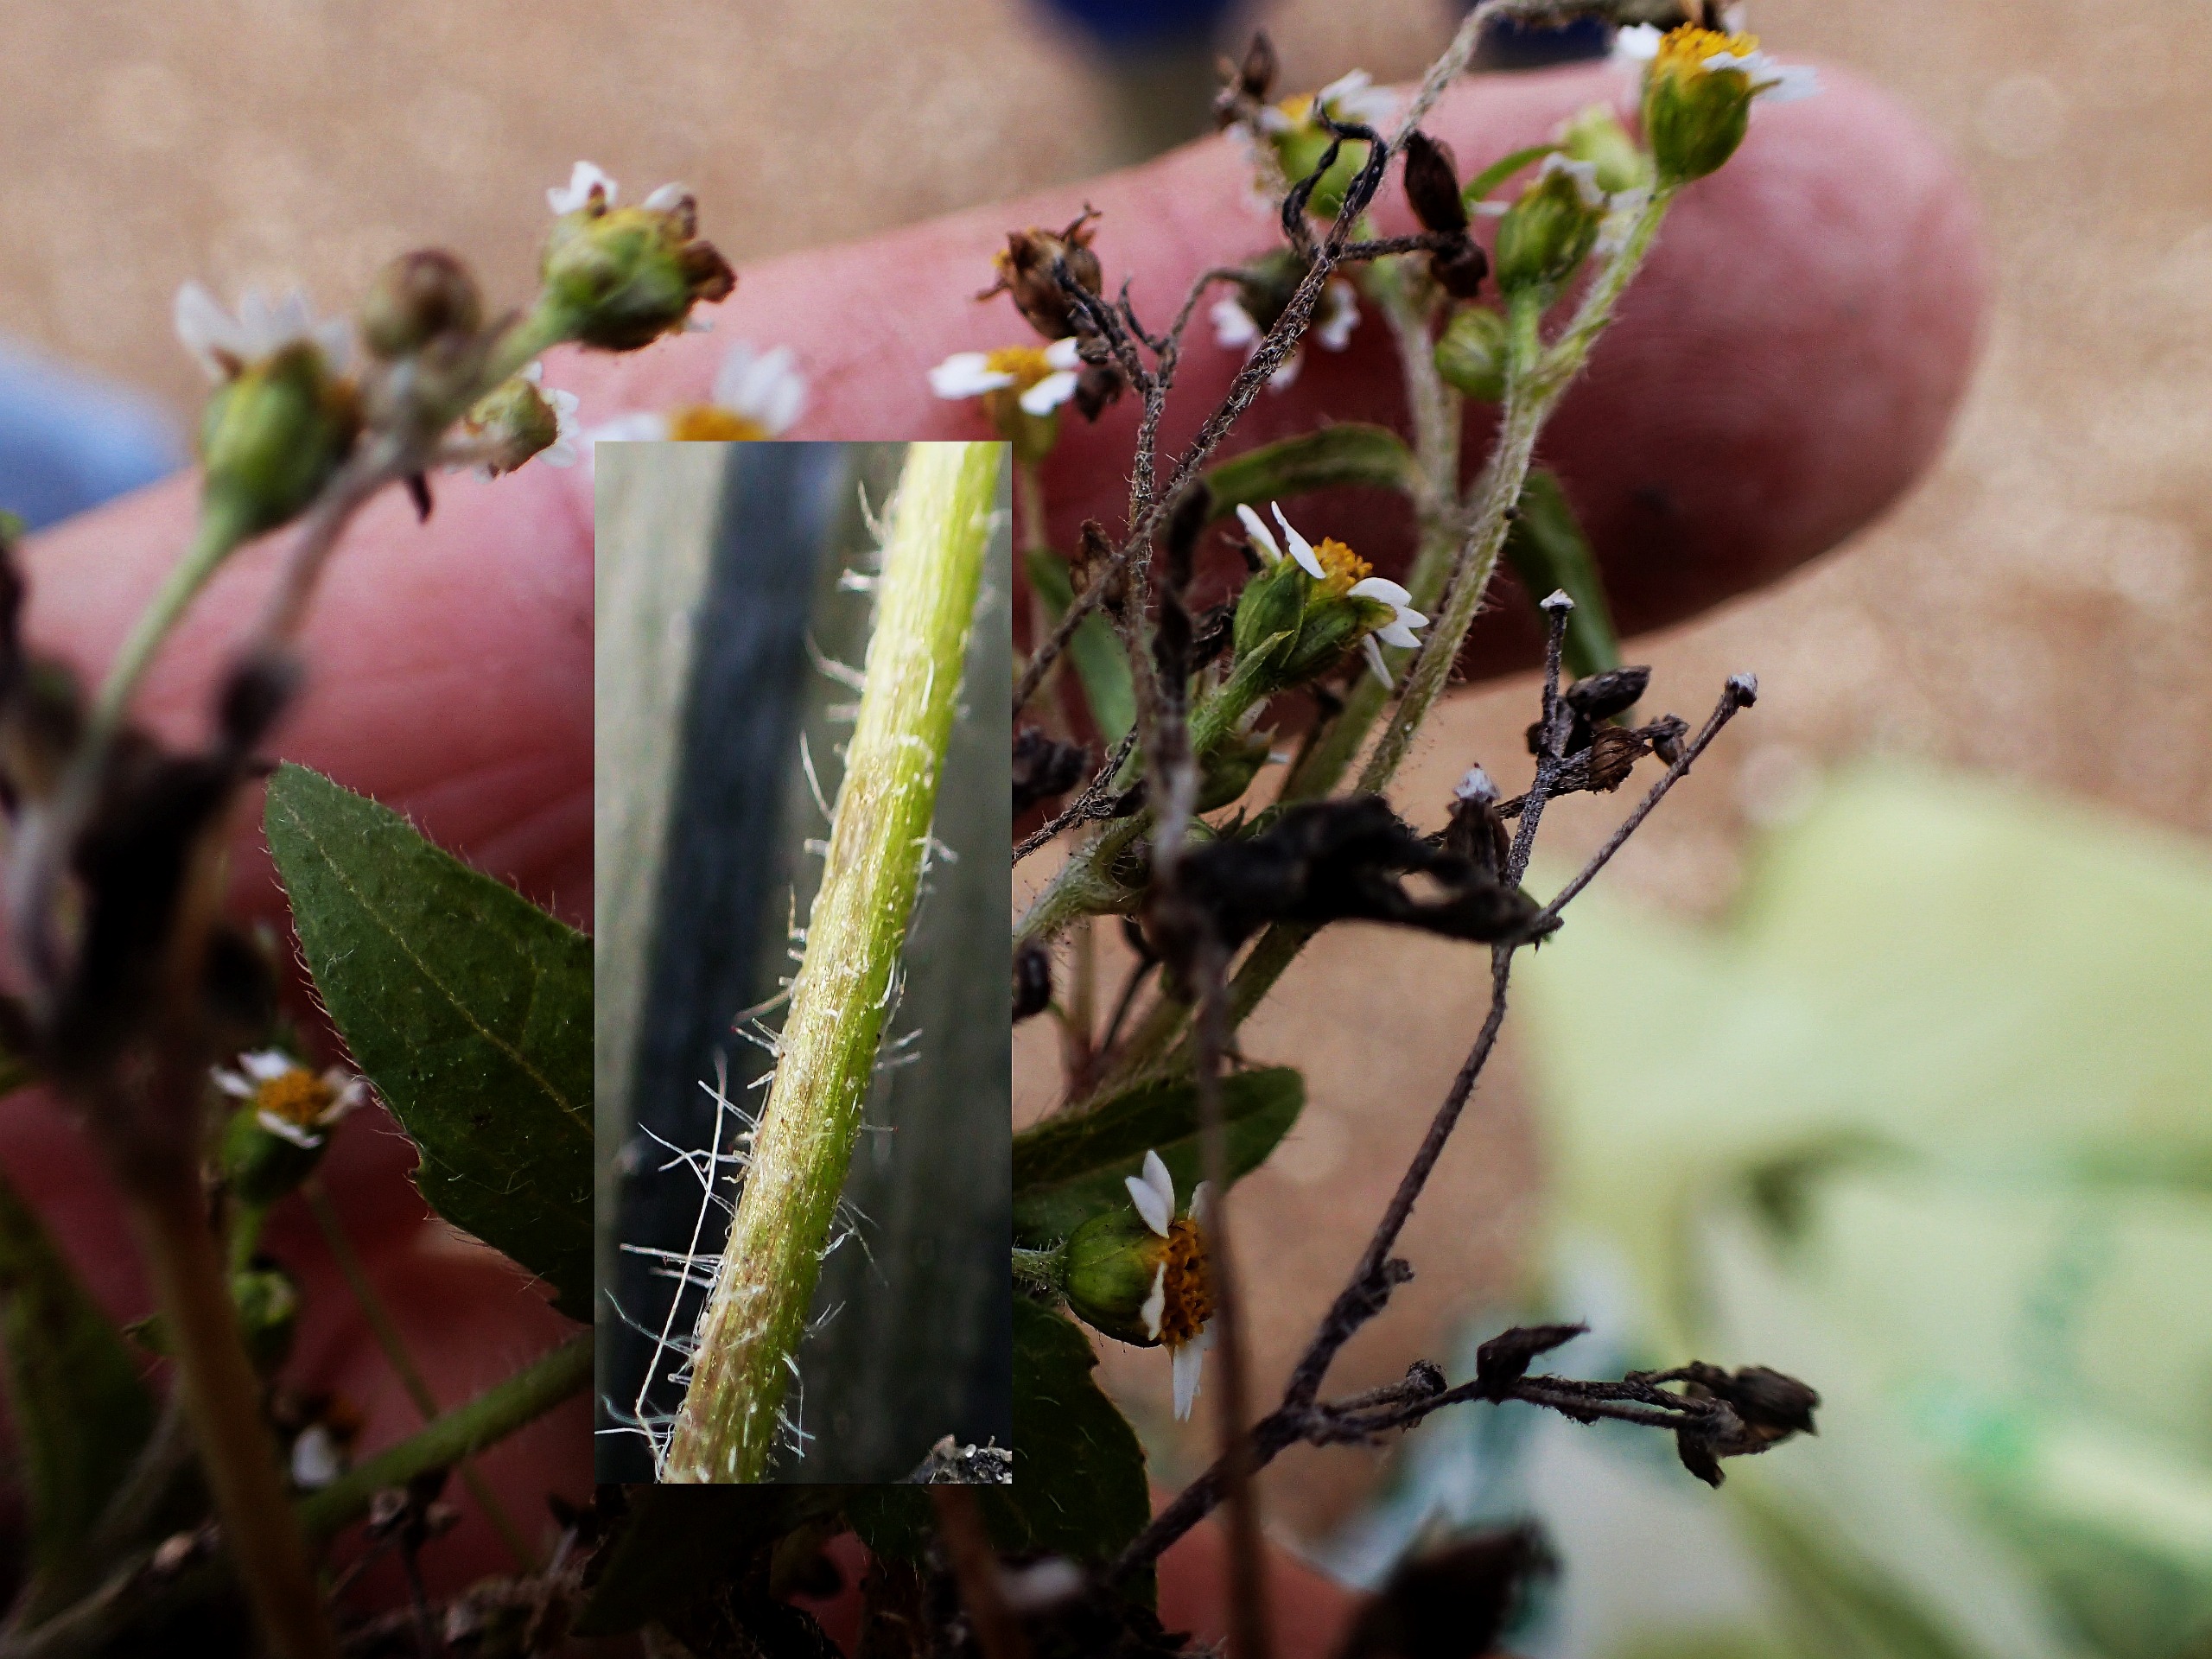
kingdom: Plantae
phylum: Tracheophyta
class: Magnoliopsida
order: Asterales
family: Asteraceae
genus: Galinsoga
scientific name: Galinsoga parviflora
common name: Håret kortstråle
